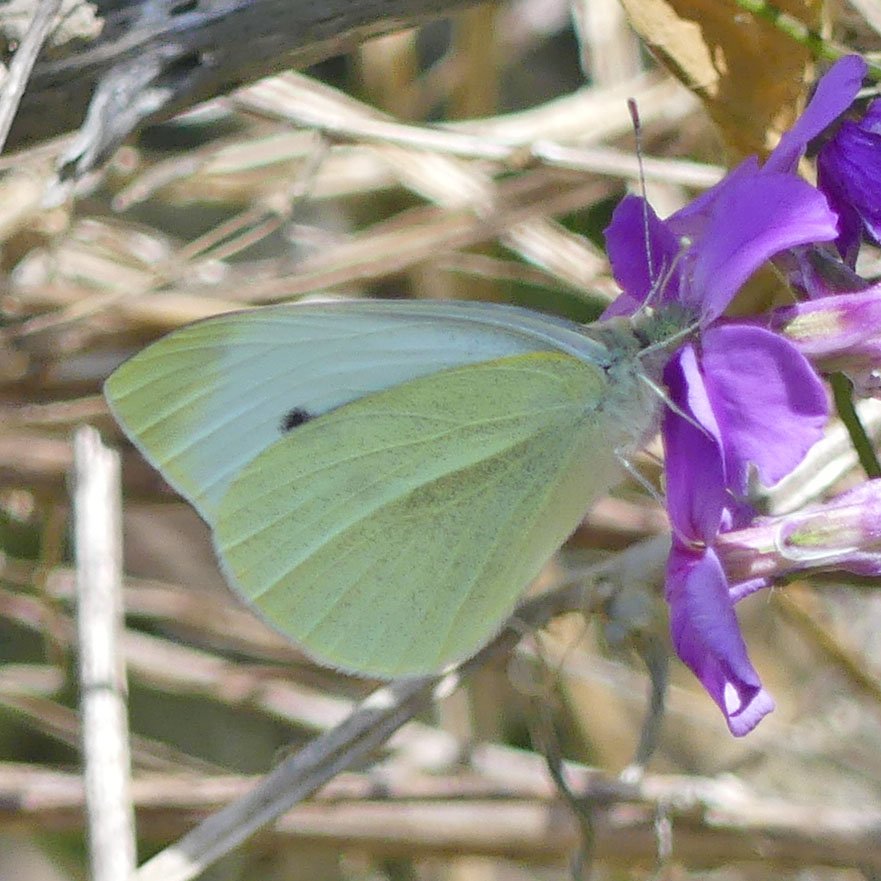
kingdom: Animalia
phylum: Arthropoda
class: Insecta
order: Lepidoptera
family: Pieridae
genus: Pieris
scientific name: Pieris rapae
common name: Cabbage White
